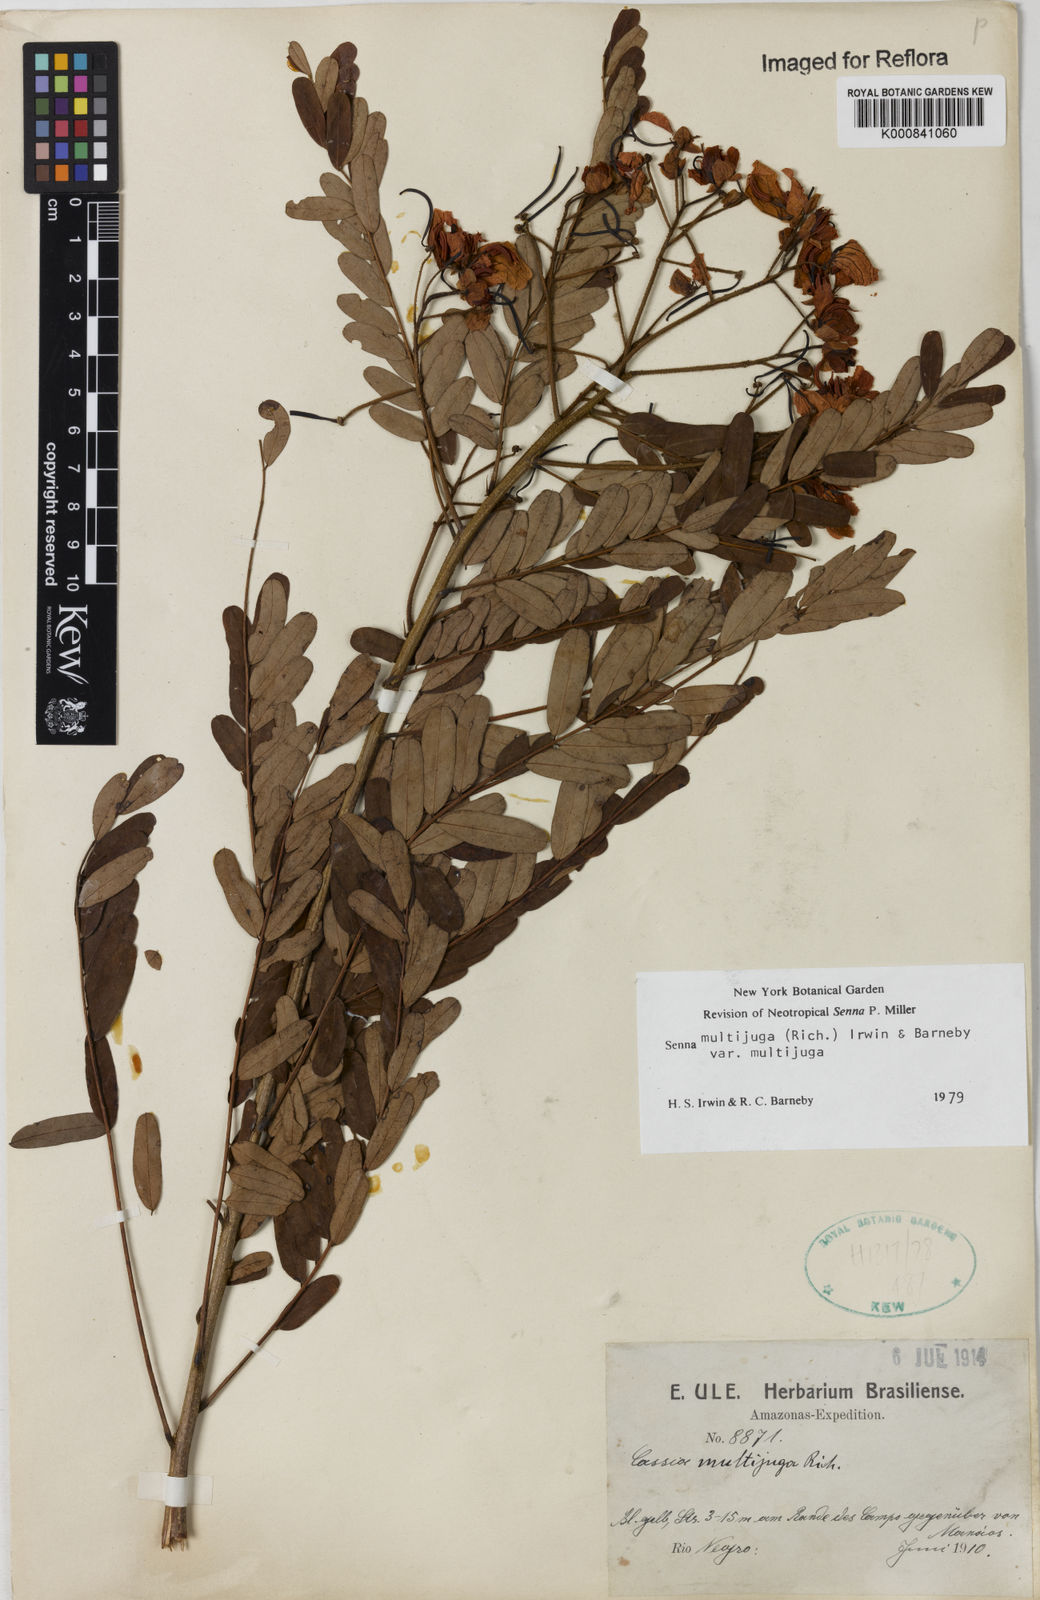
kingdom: Plantae
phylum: Tracheophyta
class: Magnoliopsida
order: Fabales
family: Fabaceae
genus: Senna
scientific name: Senna multijuga
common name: False sicklepod
